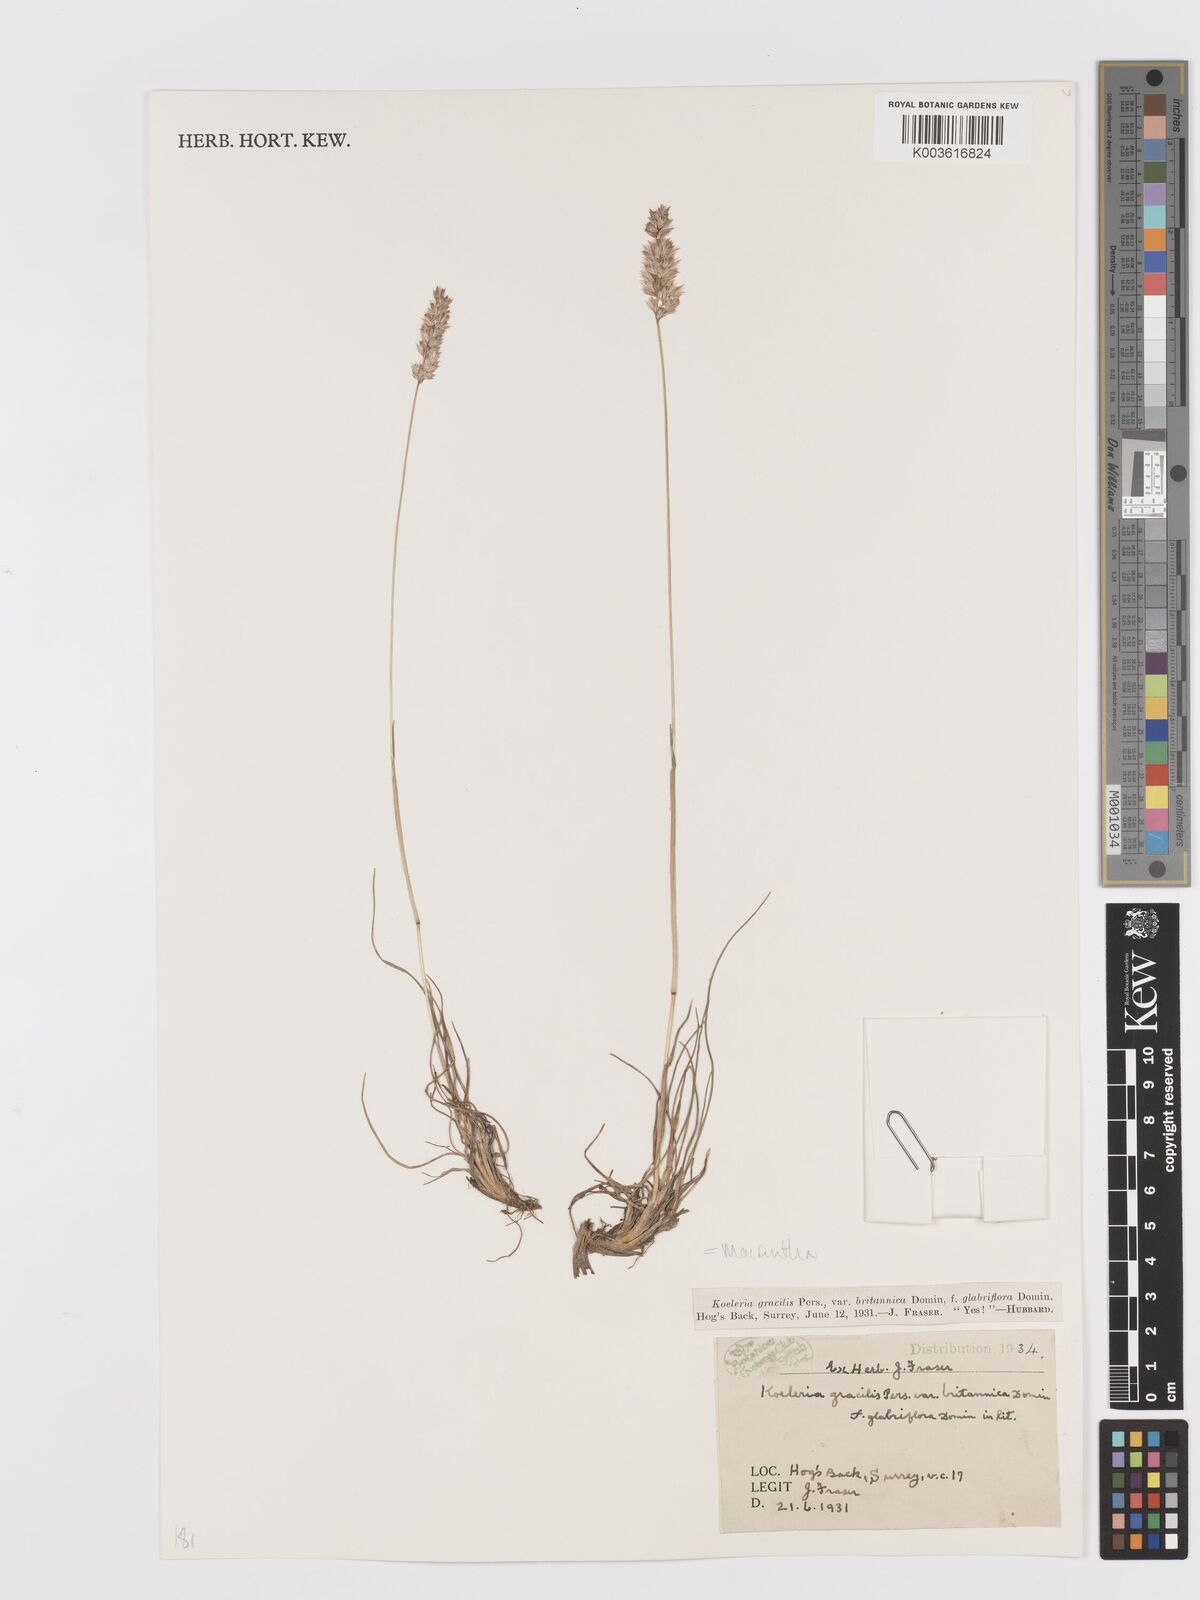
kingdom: Plantae
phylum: Tracheophyta
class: Liliopsida
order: Poales
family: Poaceae
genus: Koeleria
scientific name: Koeleria macrantha
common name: Crested hair-grass
